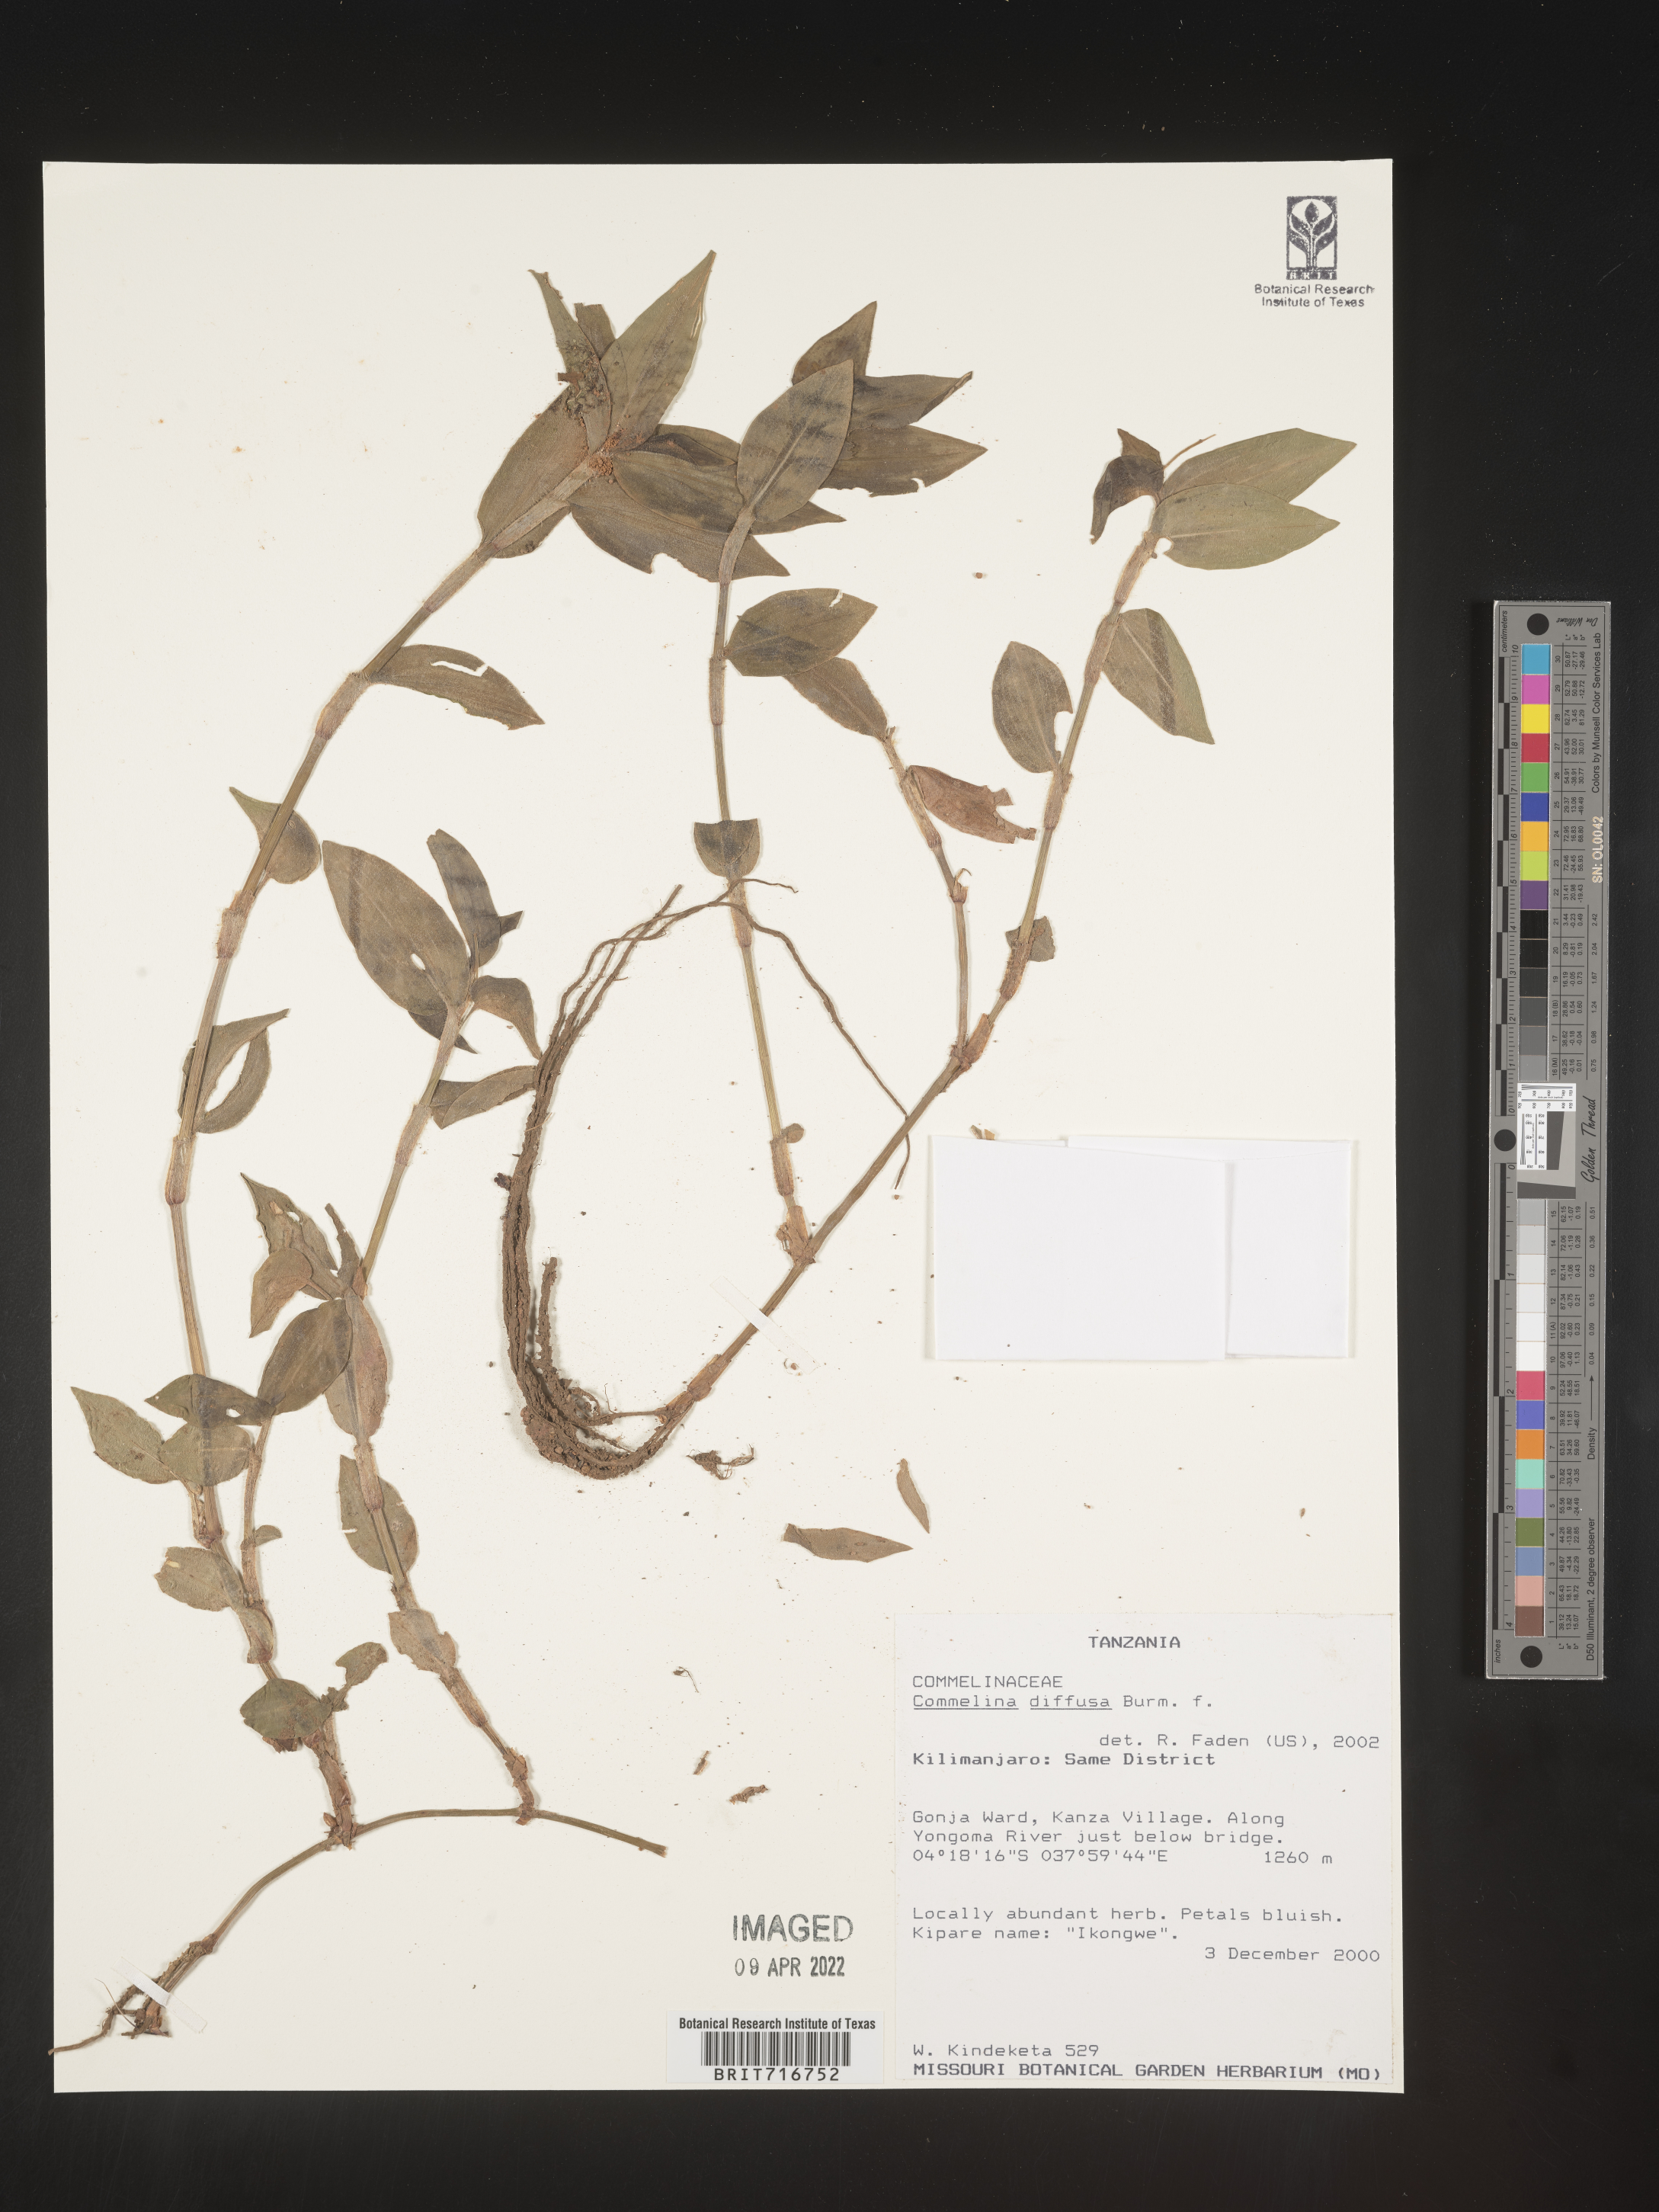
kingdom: Plantae
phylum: Tracheophyta
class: Liliopsida
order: Commelinales
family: Commelinaceae
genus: Commelina
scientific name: Commelina
